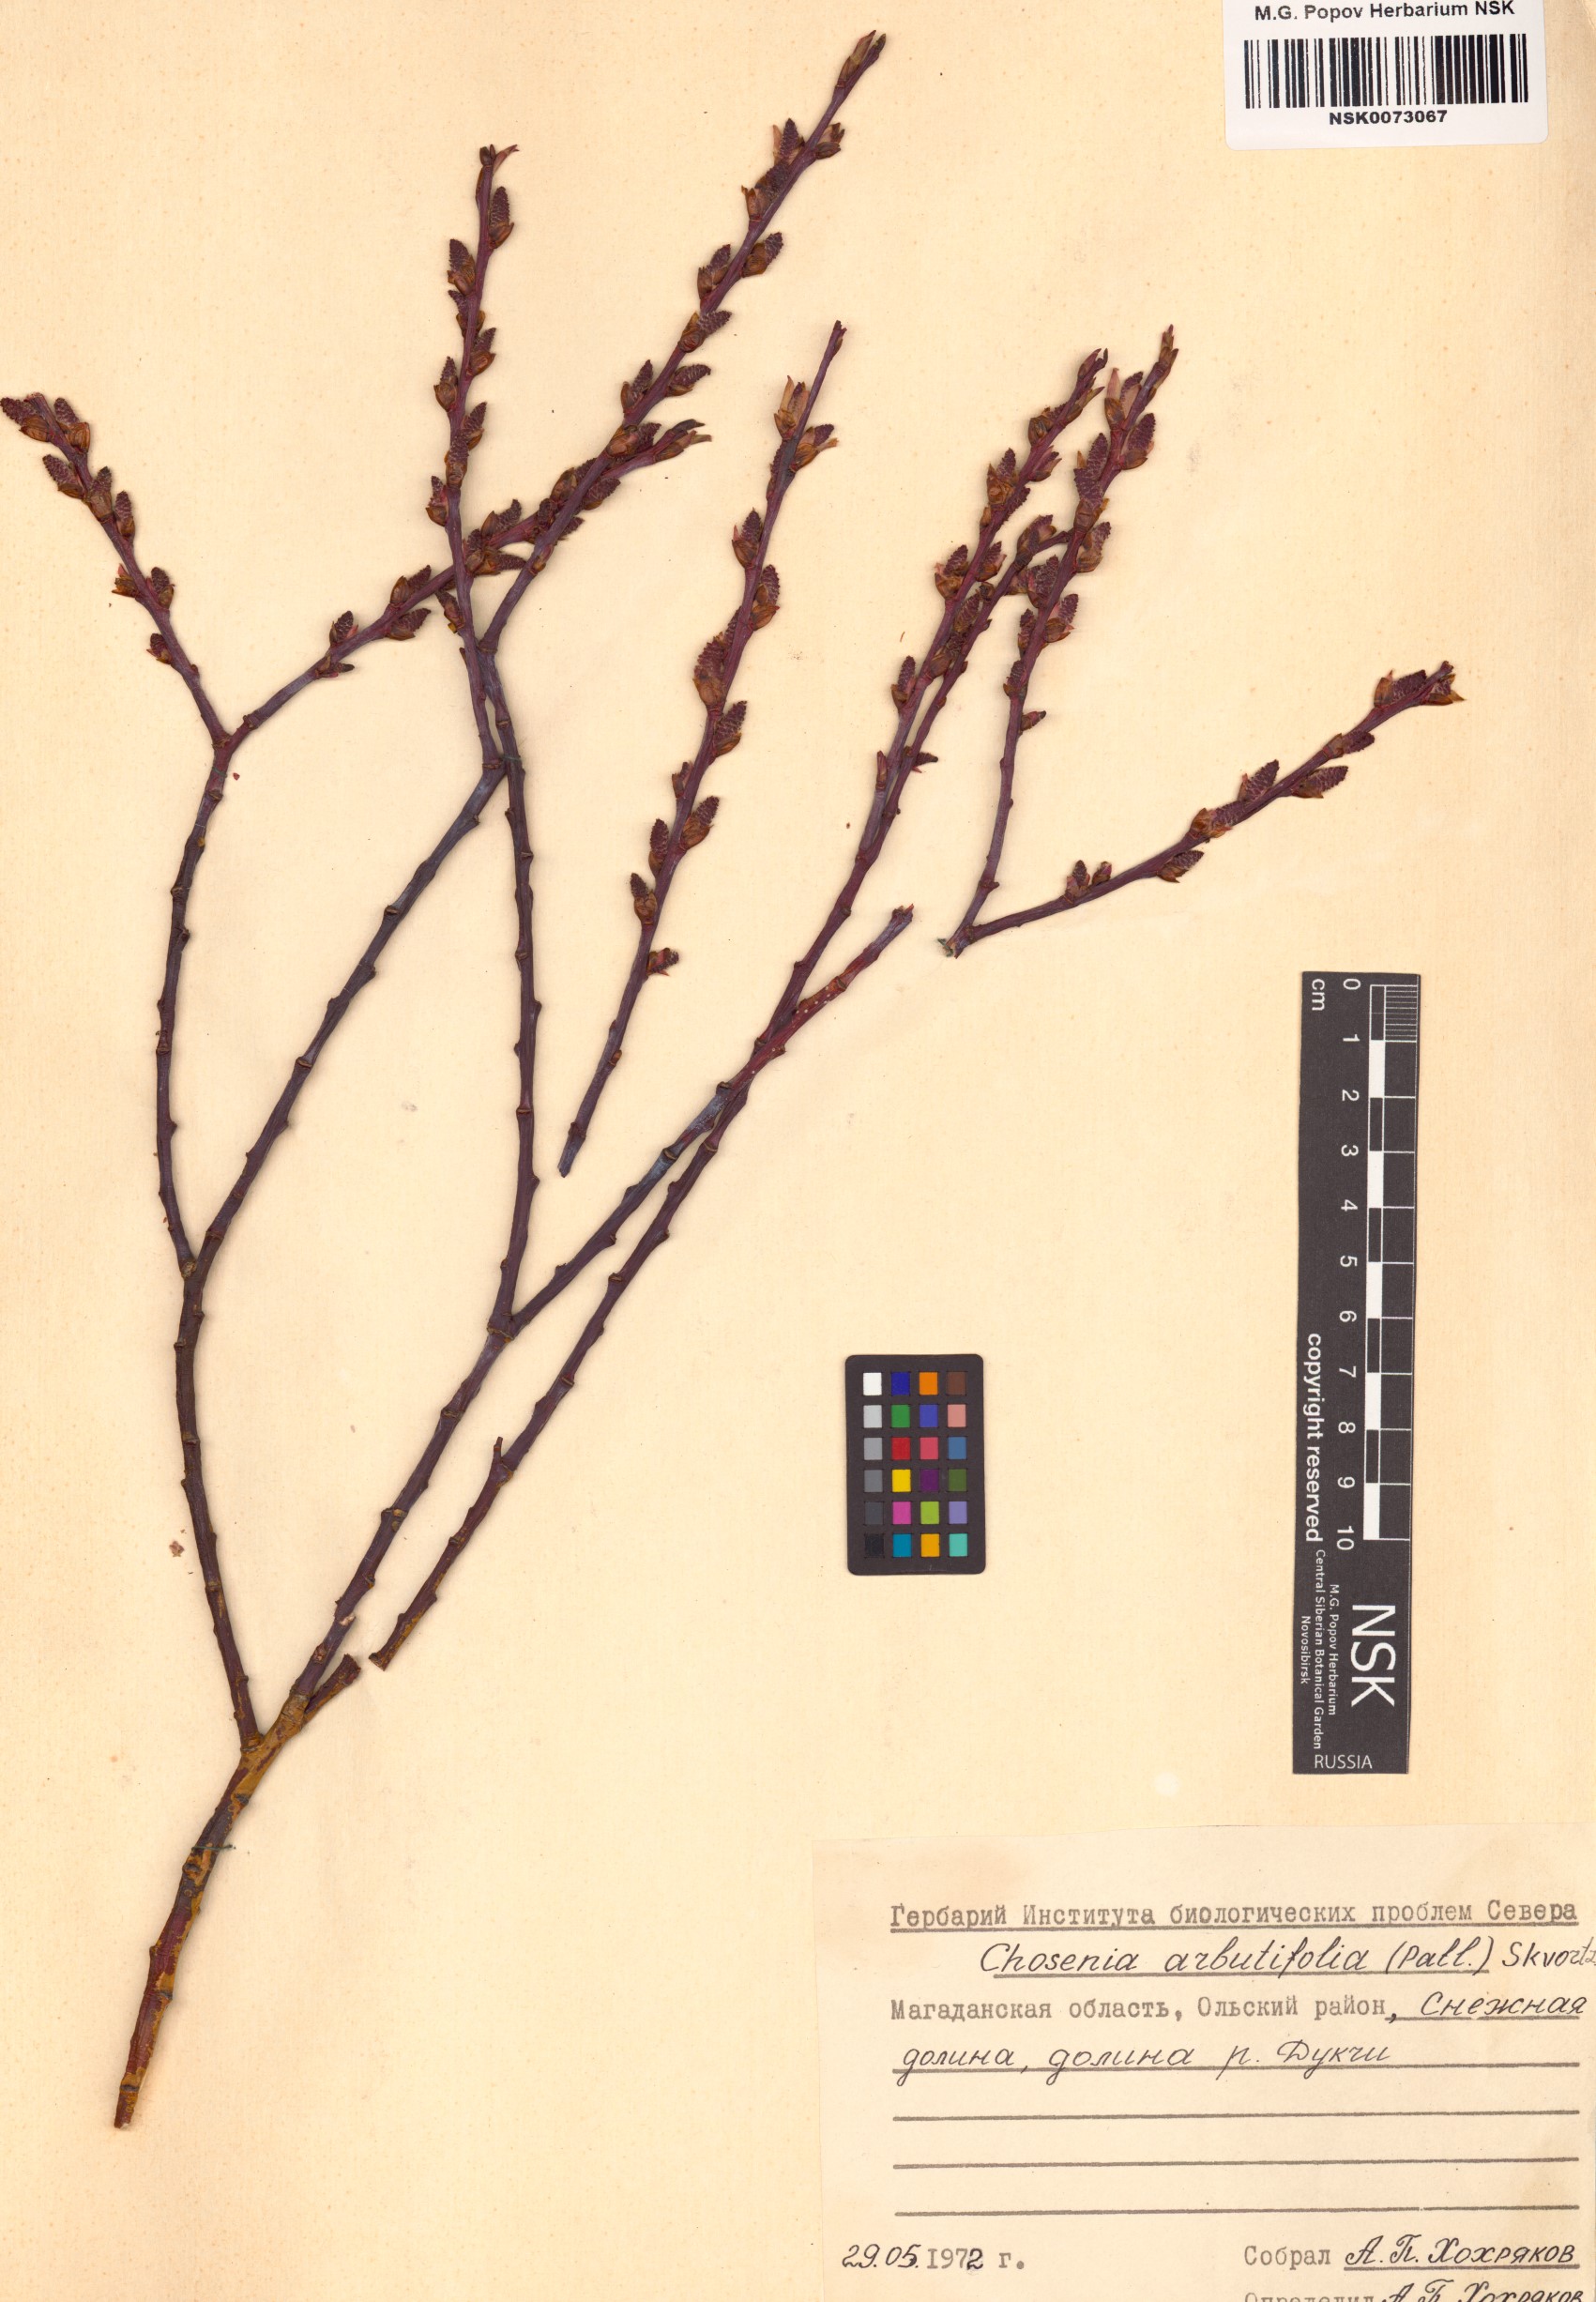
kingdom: Plantae
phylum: Tracheophyta
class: Magnoliopsida
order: Malpighiales
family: Salicaceae
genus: Chosenia
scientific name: Chosenia arbutifolia
